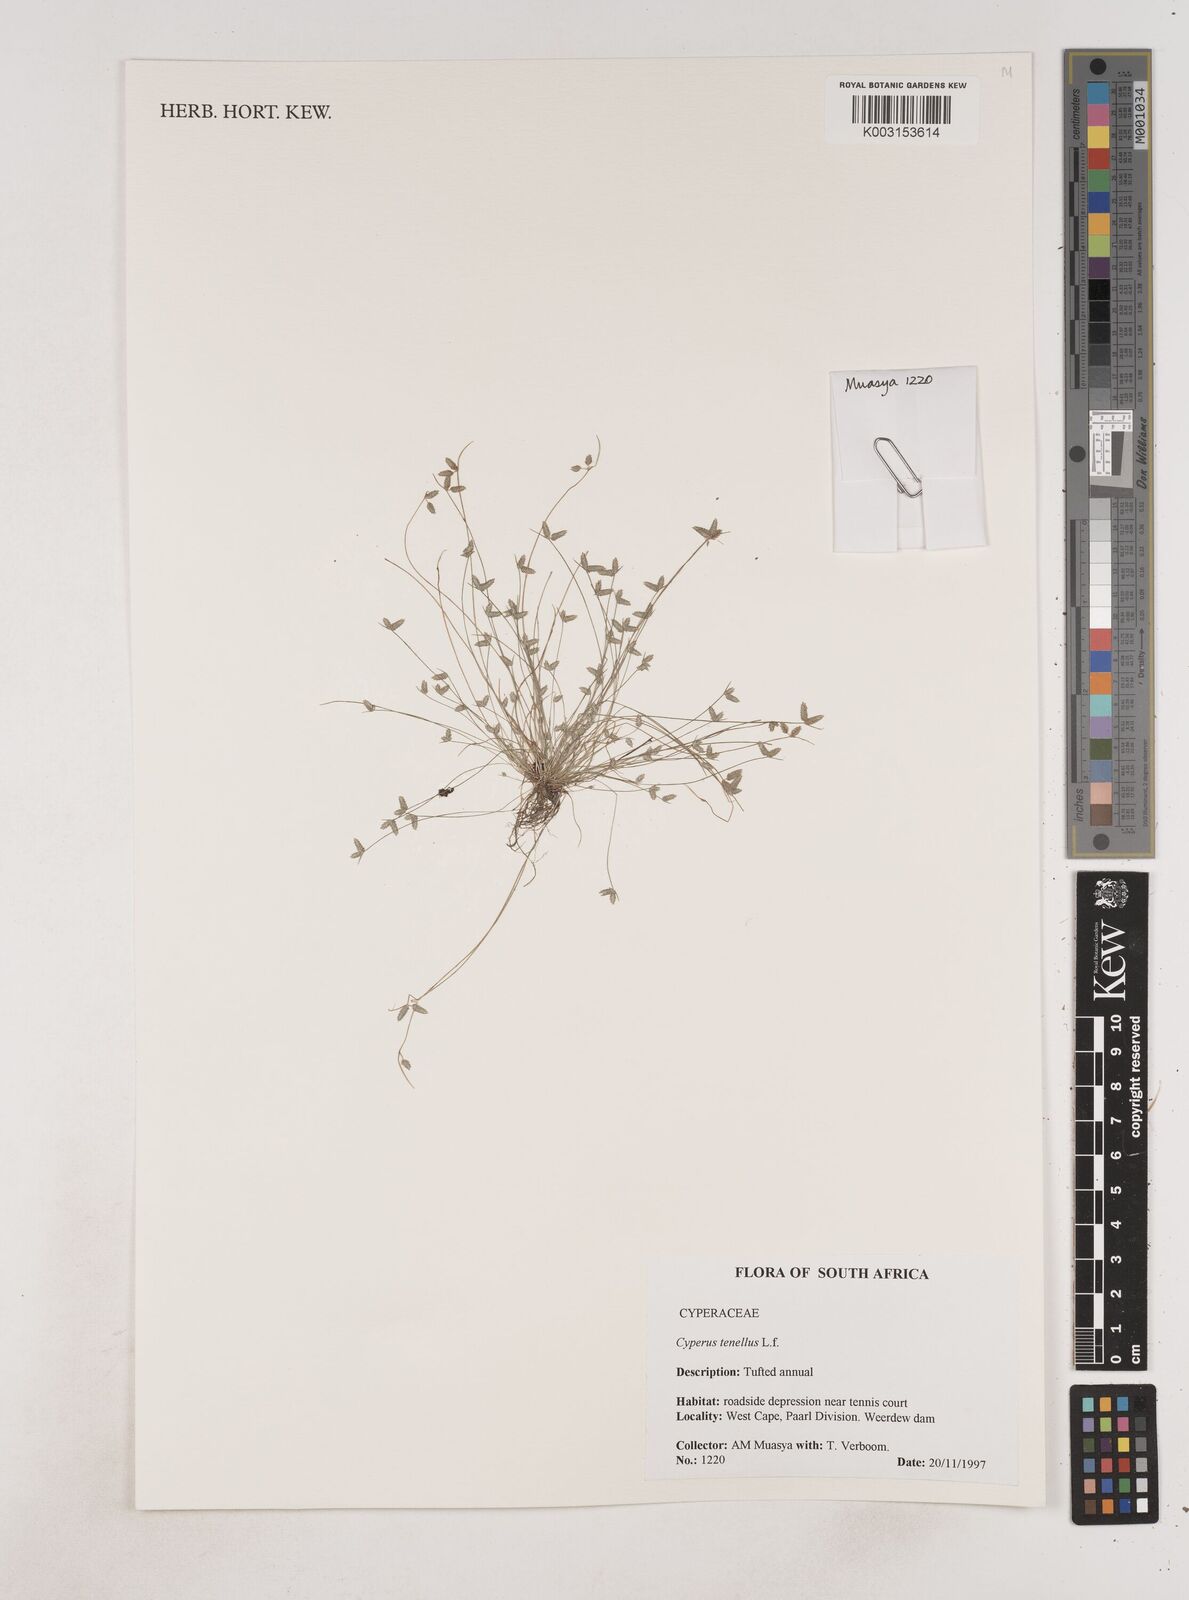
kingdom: Plantae
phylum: Tracheophyta
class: Liliopsida
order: Poales
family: Cyperaceae
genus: Isolepis
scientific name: Isolepis levynsiana
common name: Sedge
